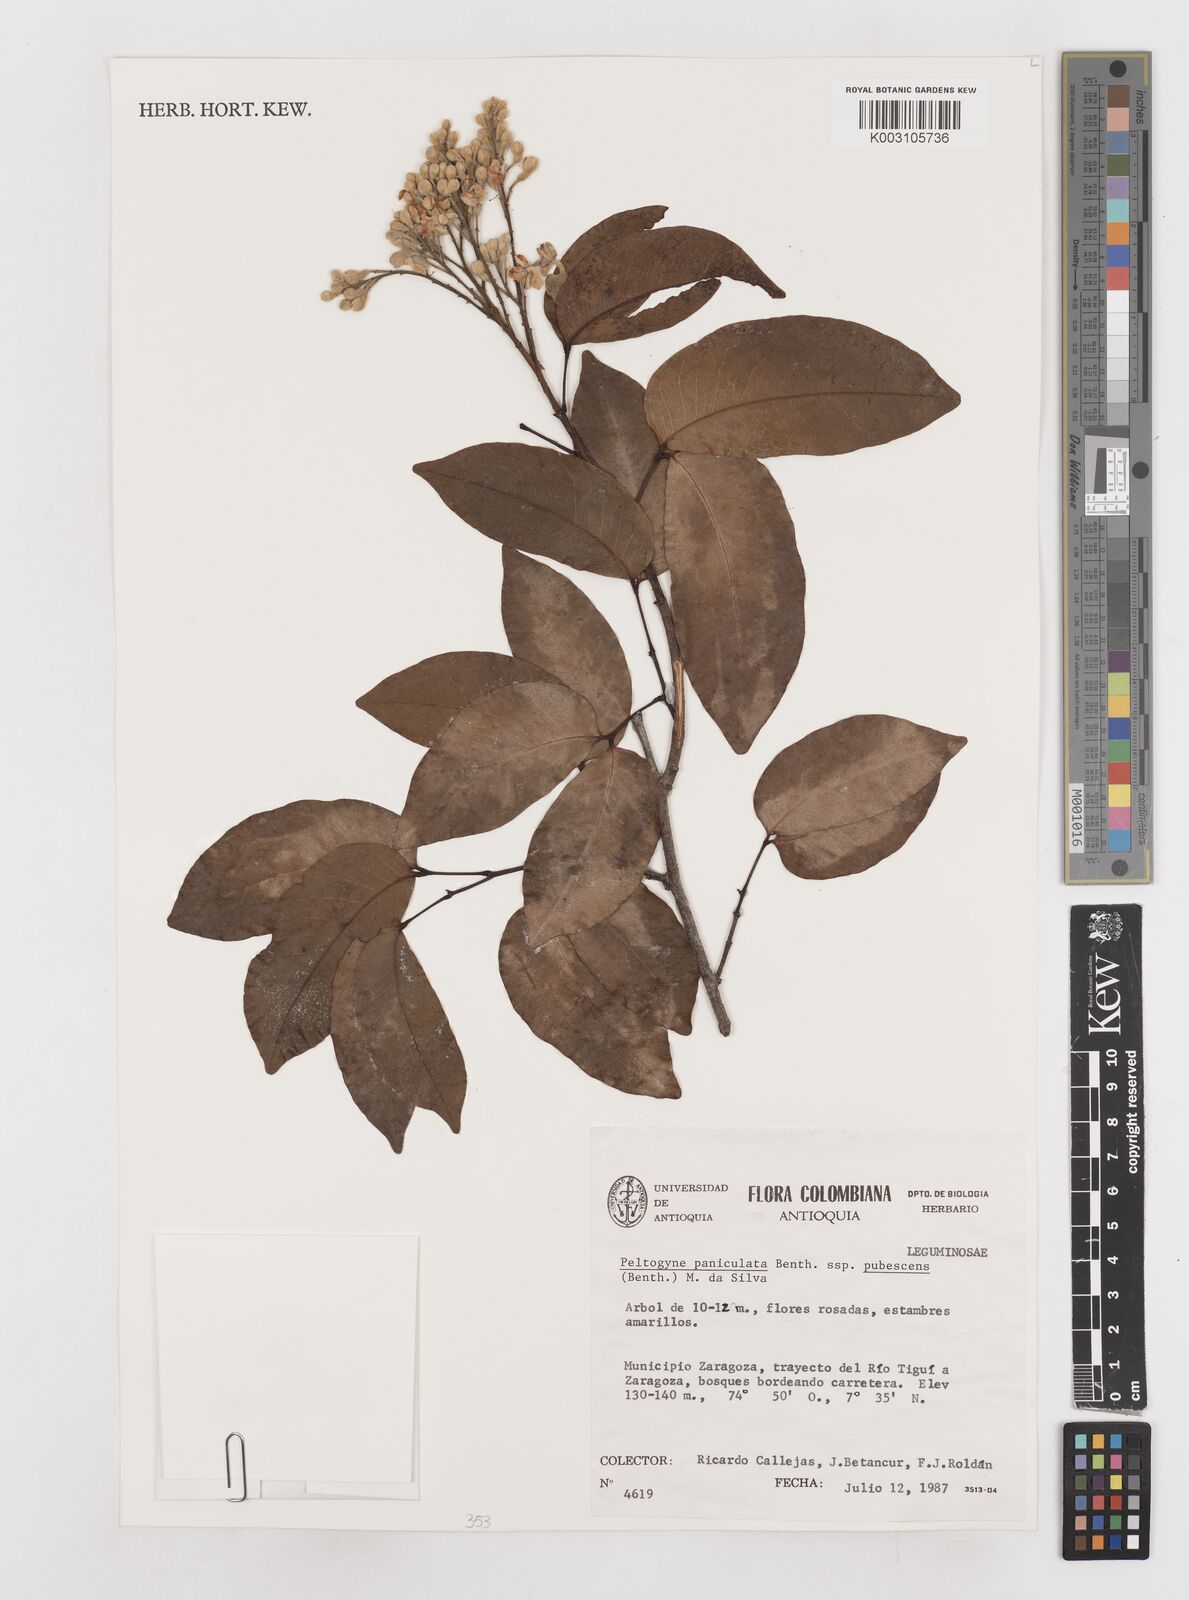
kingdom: Plantae
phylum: Tracheophyta
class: Magnoliopsida
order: Fabales
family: Fabaceae
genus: Peltogyne
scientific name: Peltogyne paniculata
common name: Purpleheart
